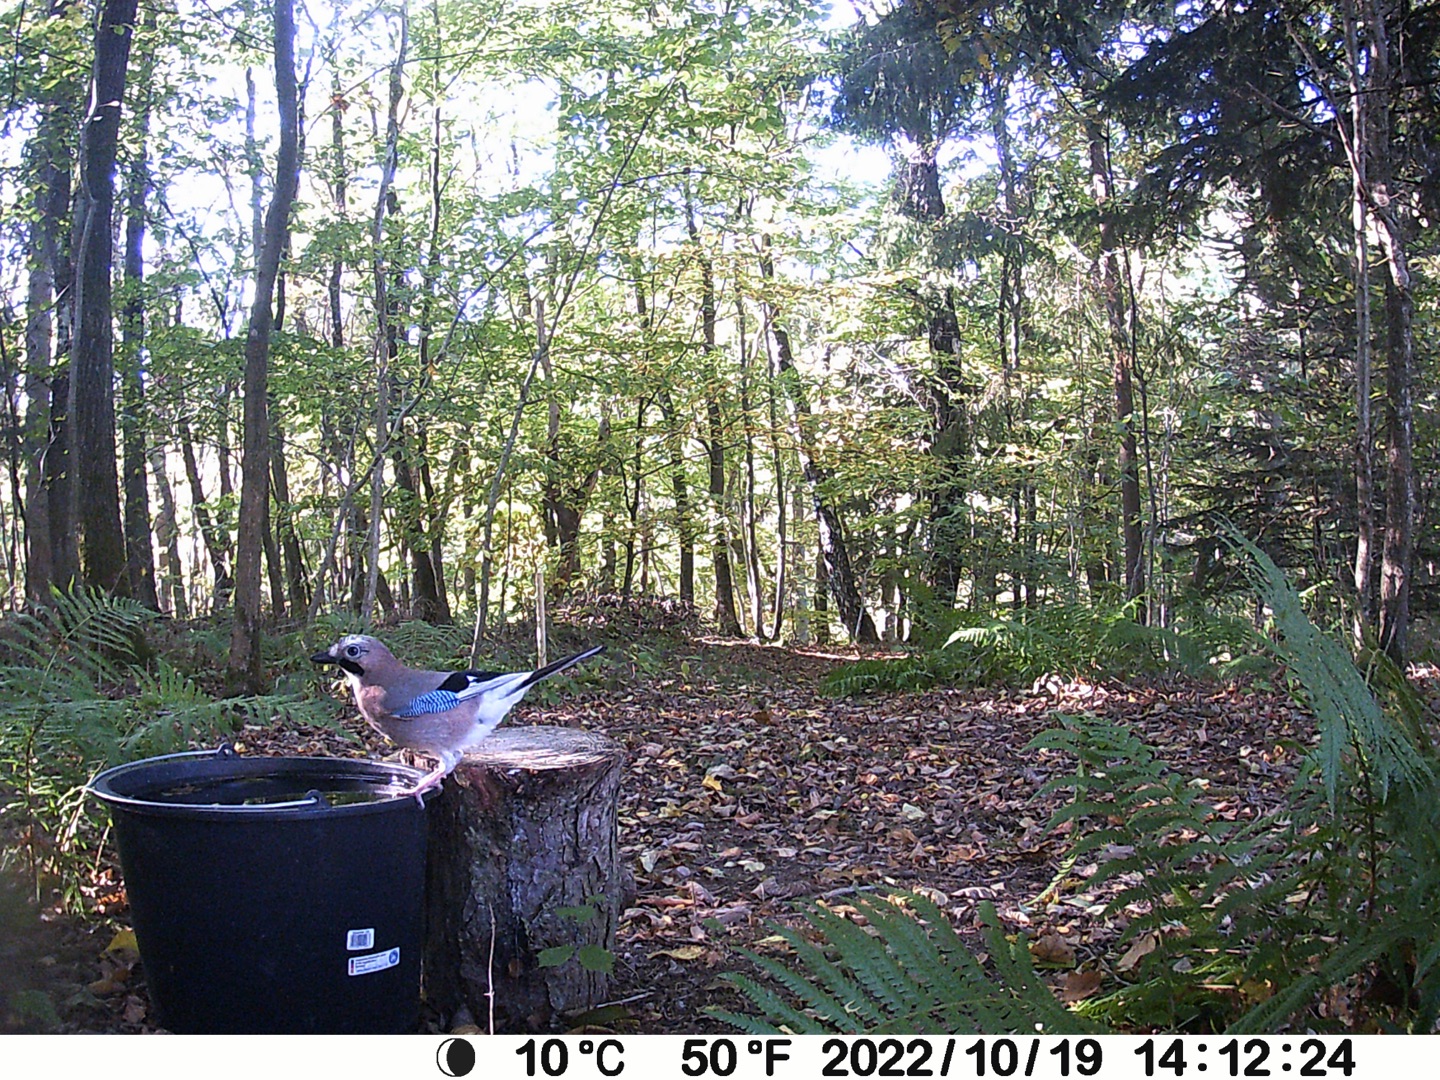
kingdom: Animalia
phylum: Chordata
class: Aves
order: Passeriformes
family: Corvidae
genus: Garrulus
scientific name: Garrulus glandarius
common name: Skovskade
